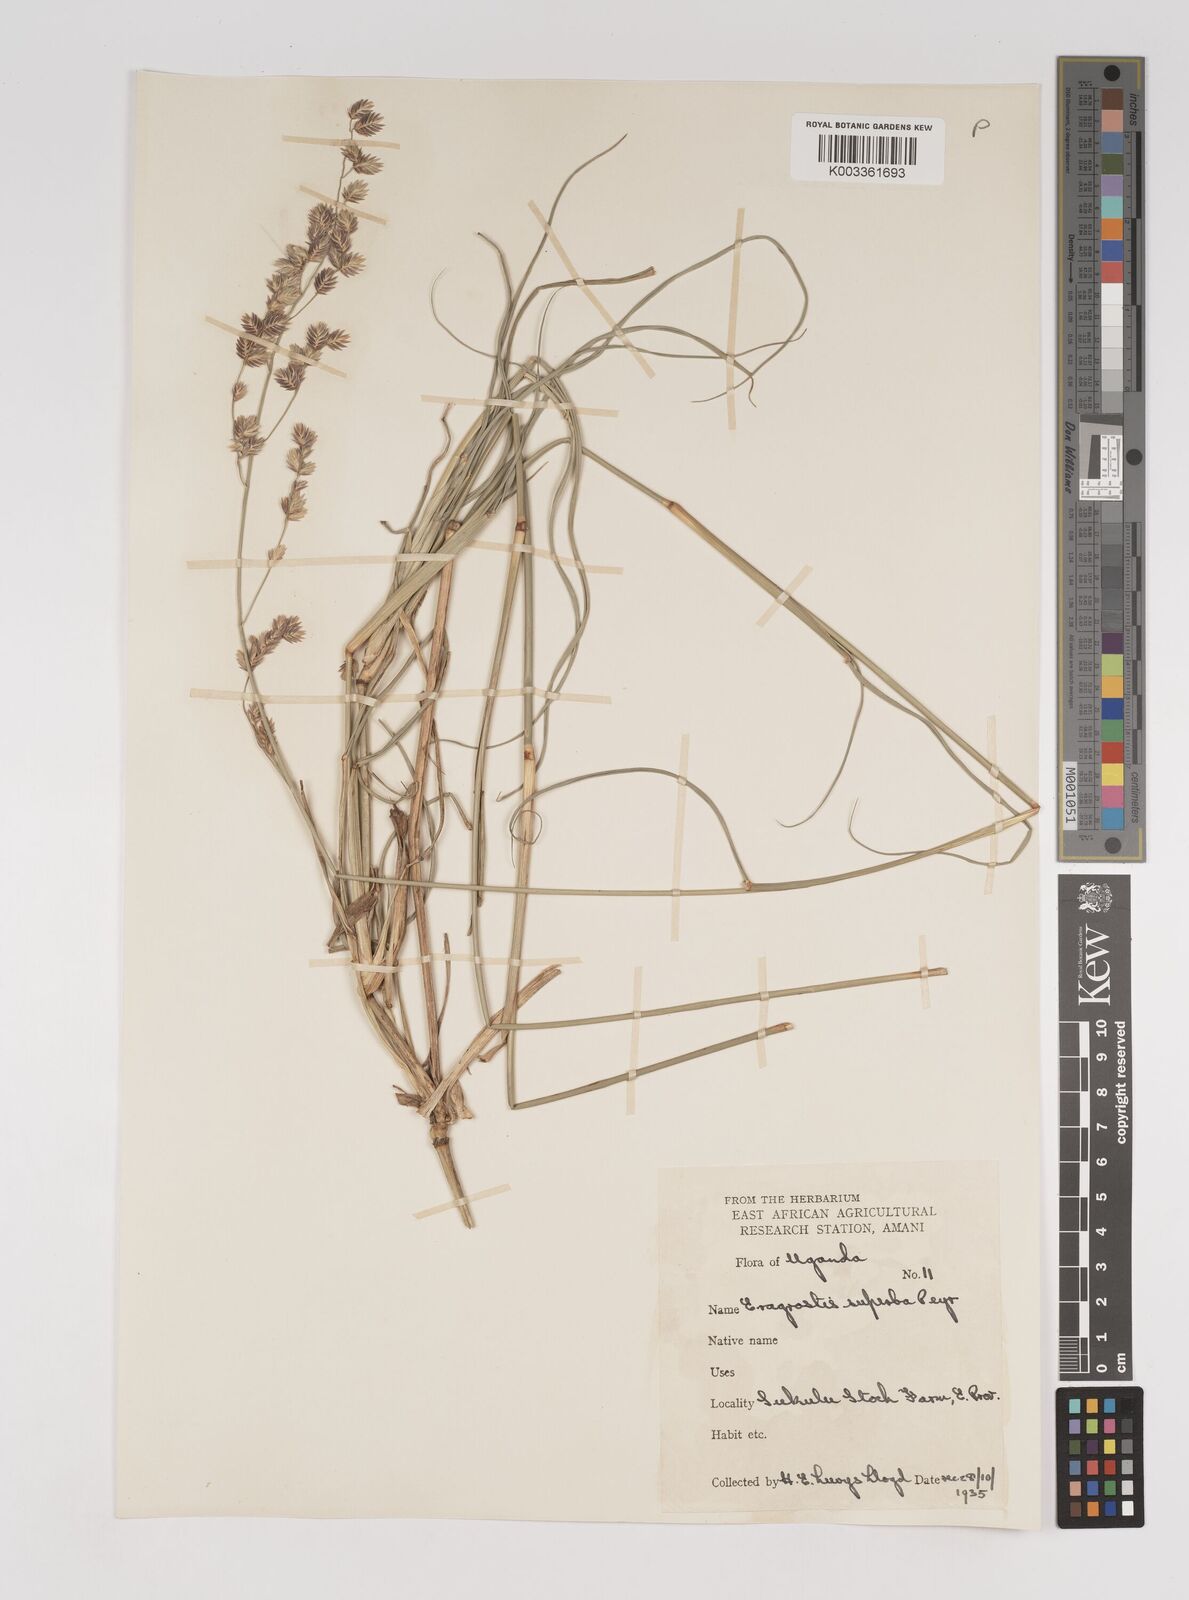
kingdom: Plantae
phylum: Tracheophyta
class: Liliopsida
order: Poales
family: Poaceae
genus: Eragrostis
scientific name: Eragrostis superba
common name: Wilman lovegrass
